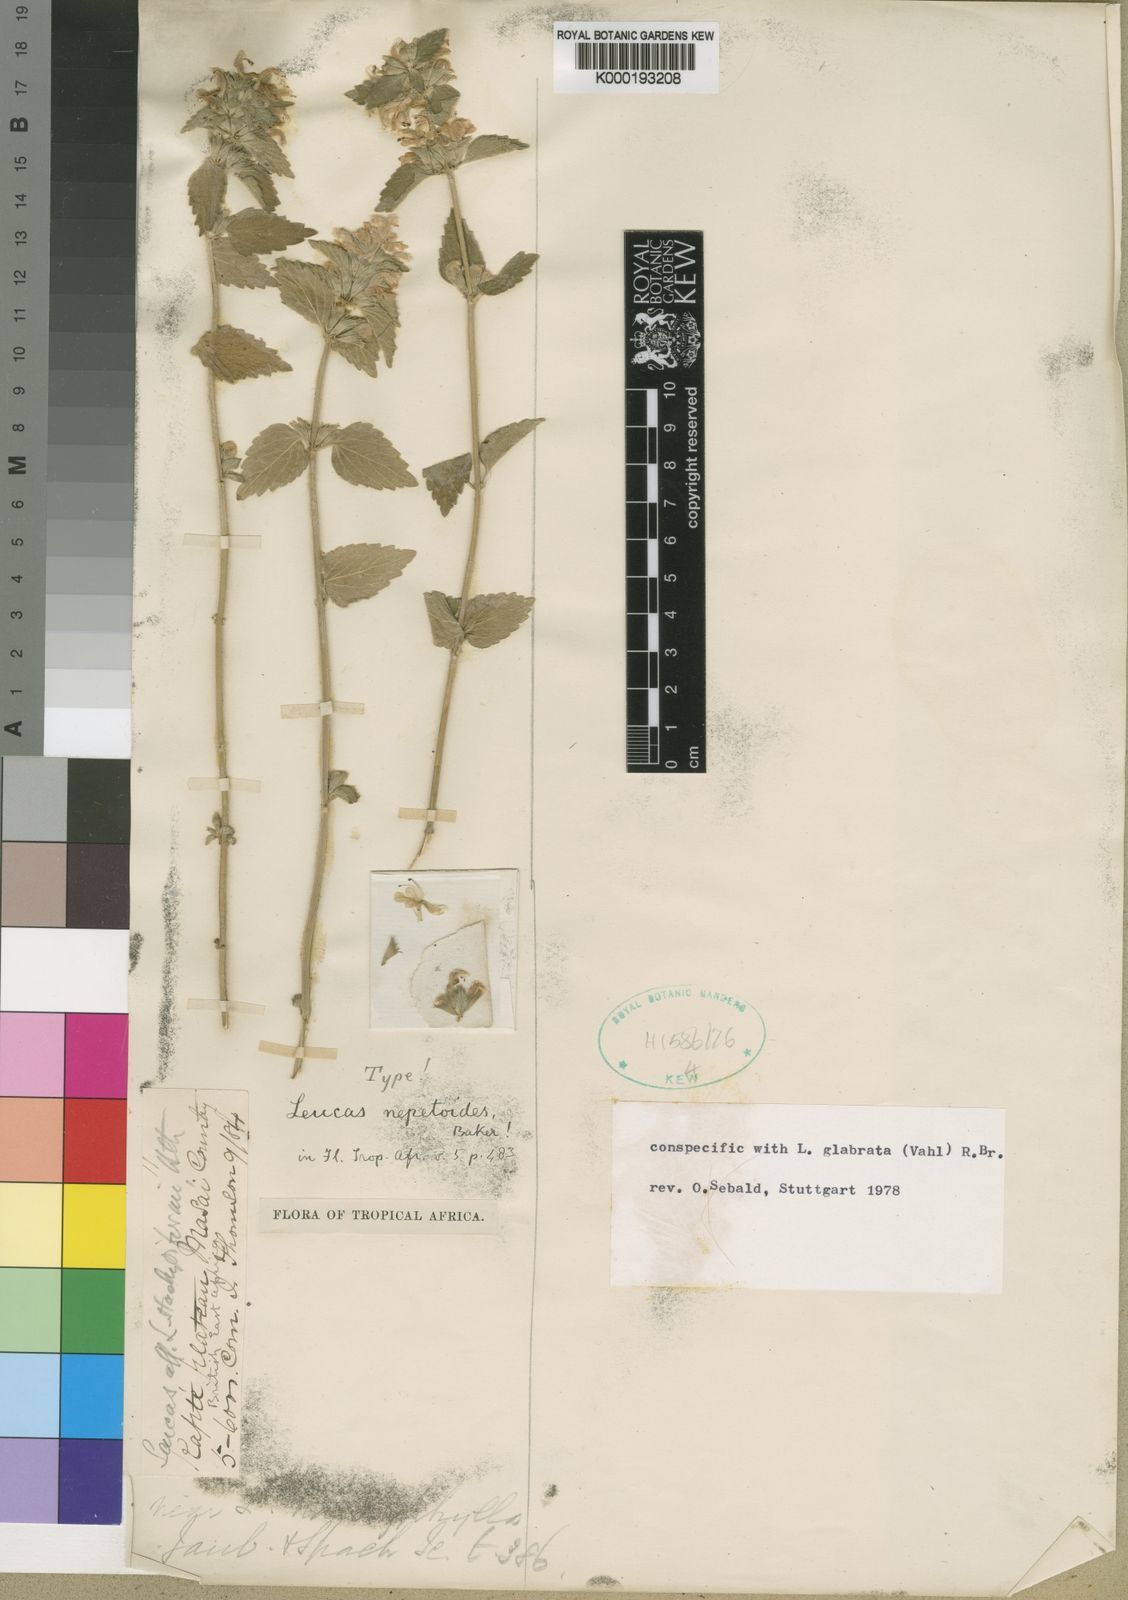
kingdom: Plantae
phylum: Tracheophyta
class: Magnoliopsida
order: Lamiales
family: Lamiaceae
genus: Leucas
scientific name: Leucas glabrata
